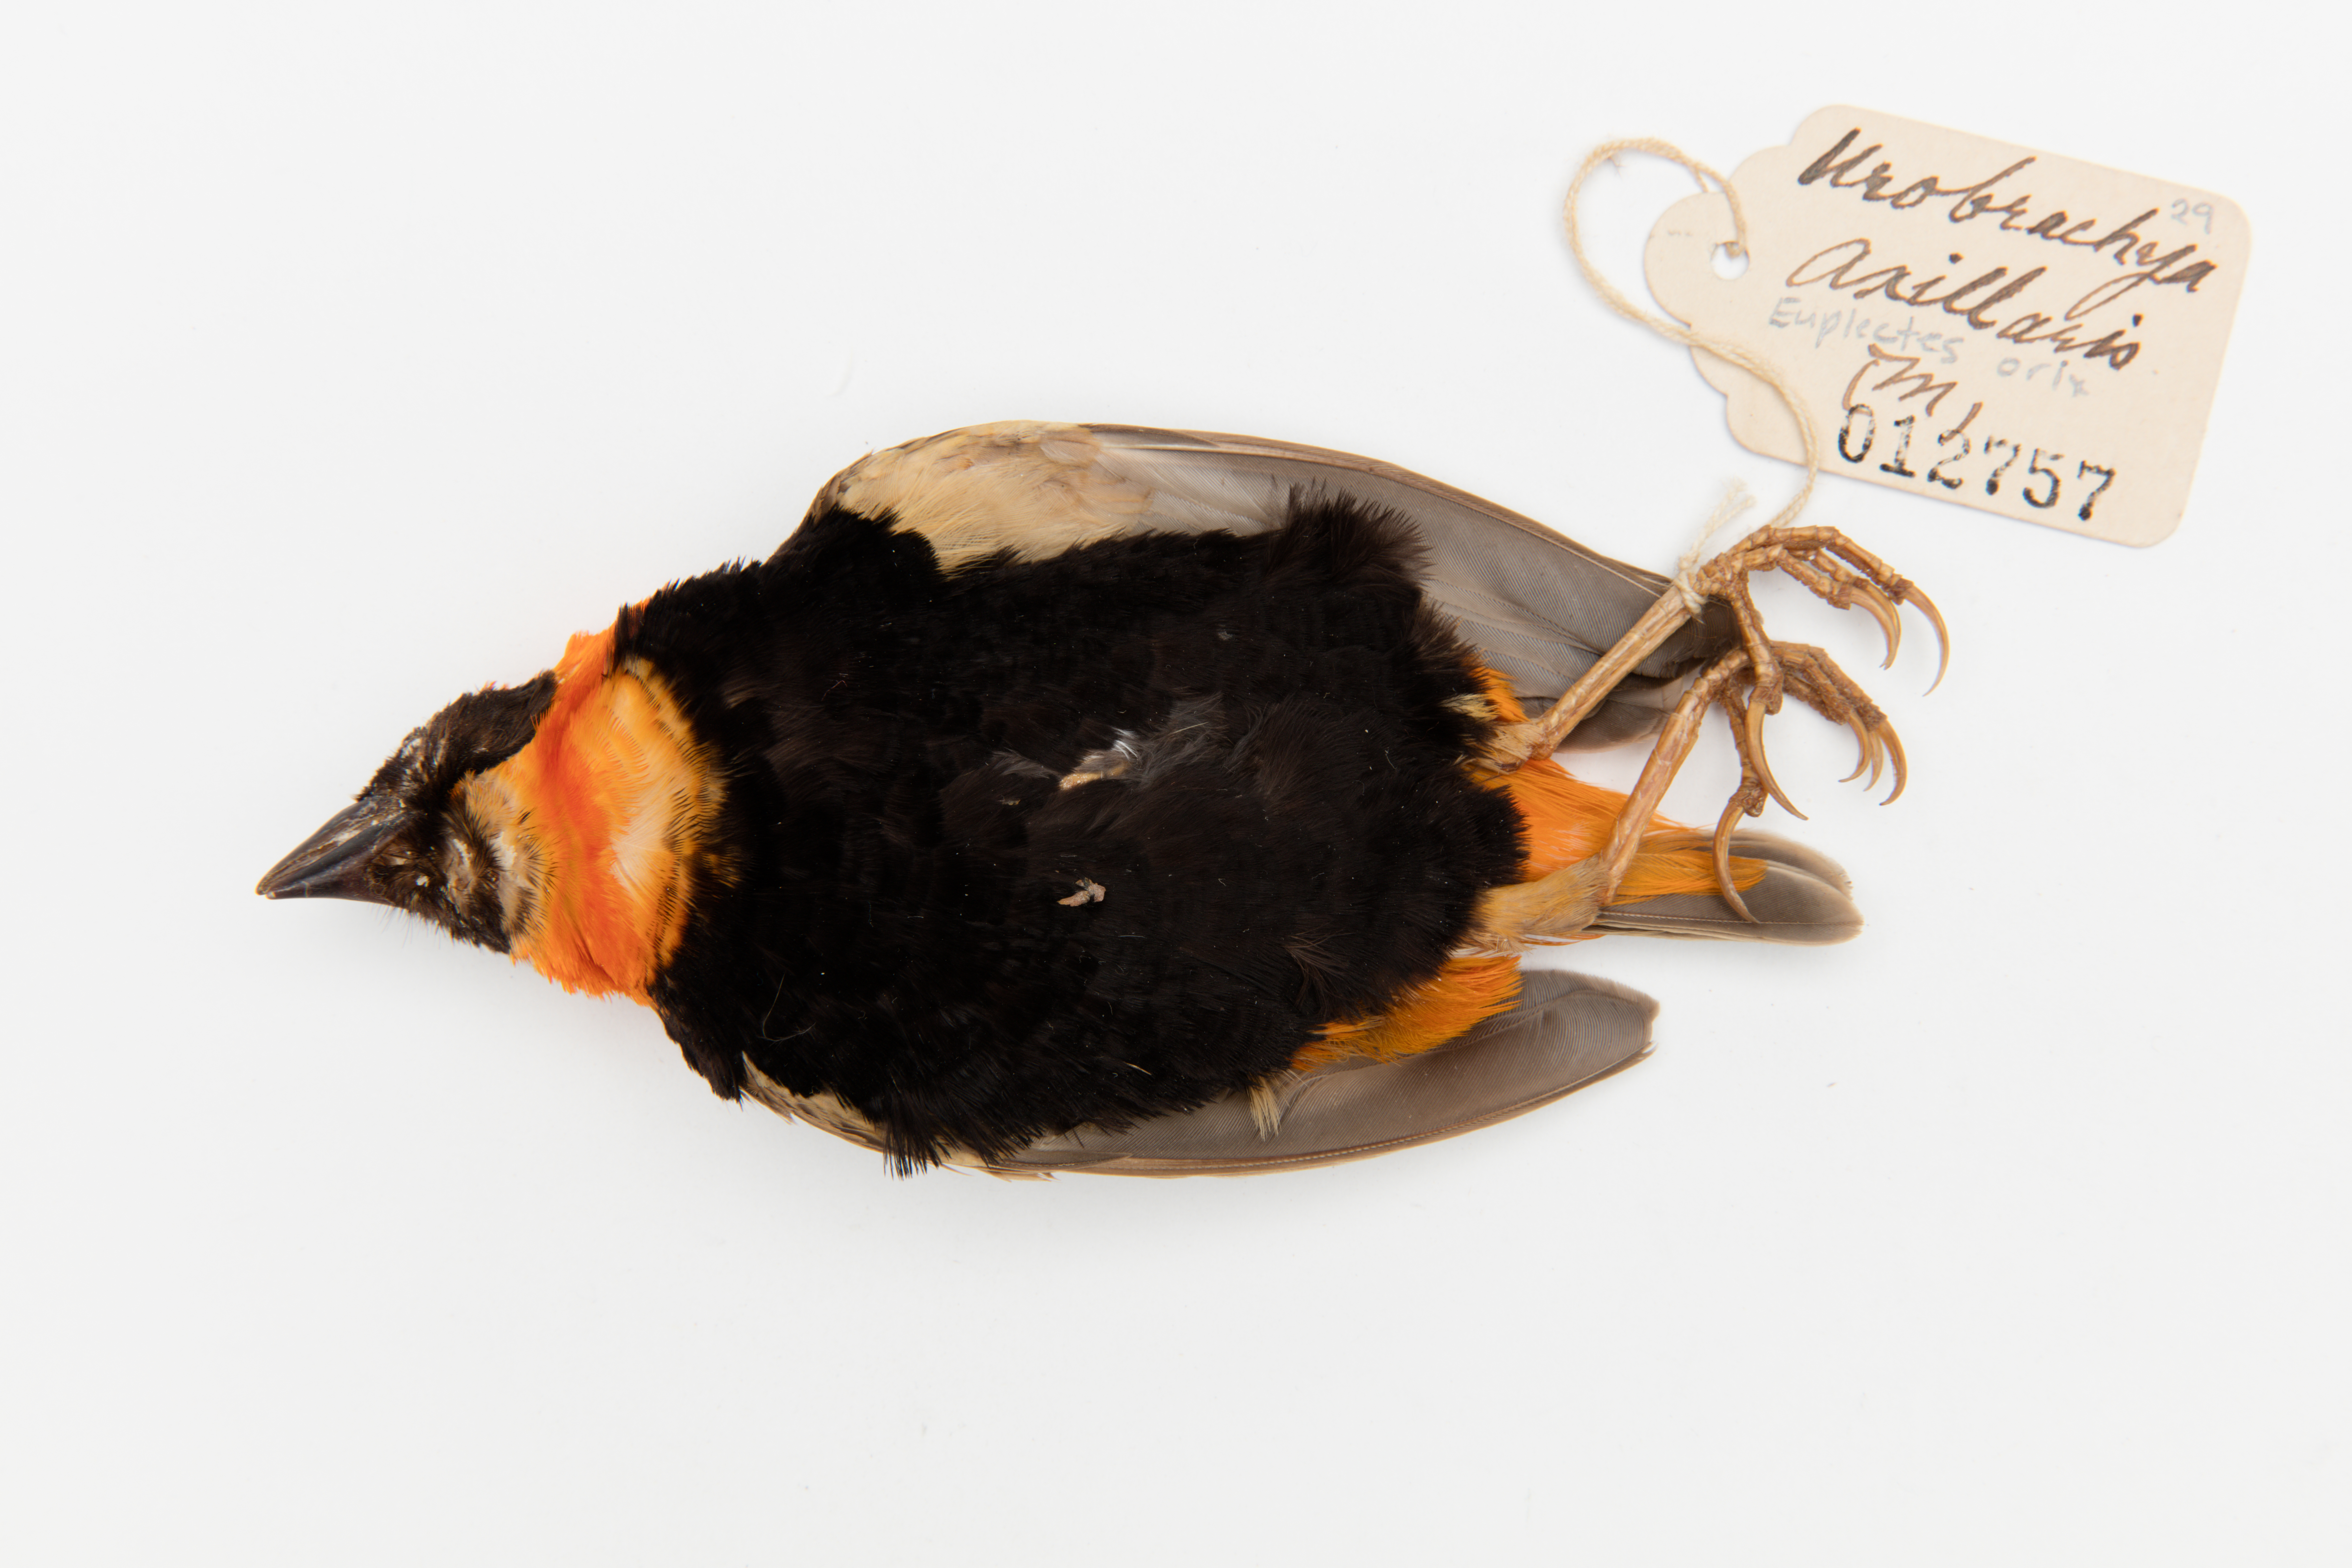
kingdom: Animalia
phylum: Chordata
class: Aves
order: Passeriformes
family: Ploceidae
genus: Euplectes
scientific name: Euplectes orix
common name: Southern red bishop
